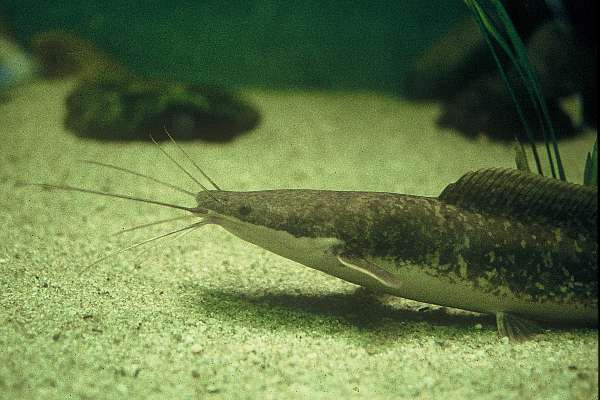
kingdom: Animalia
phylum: Chordata
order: Siluriformes
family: Clariidae
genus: Clarias
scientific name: Clarias gariepinus
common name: African catfish
